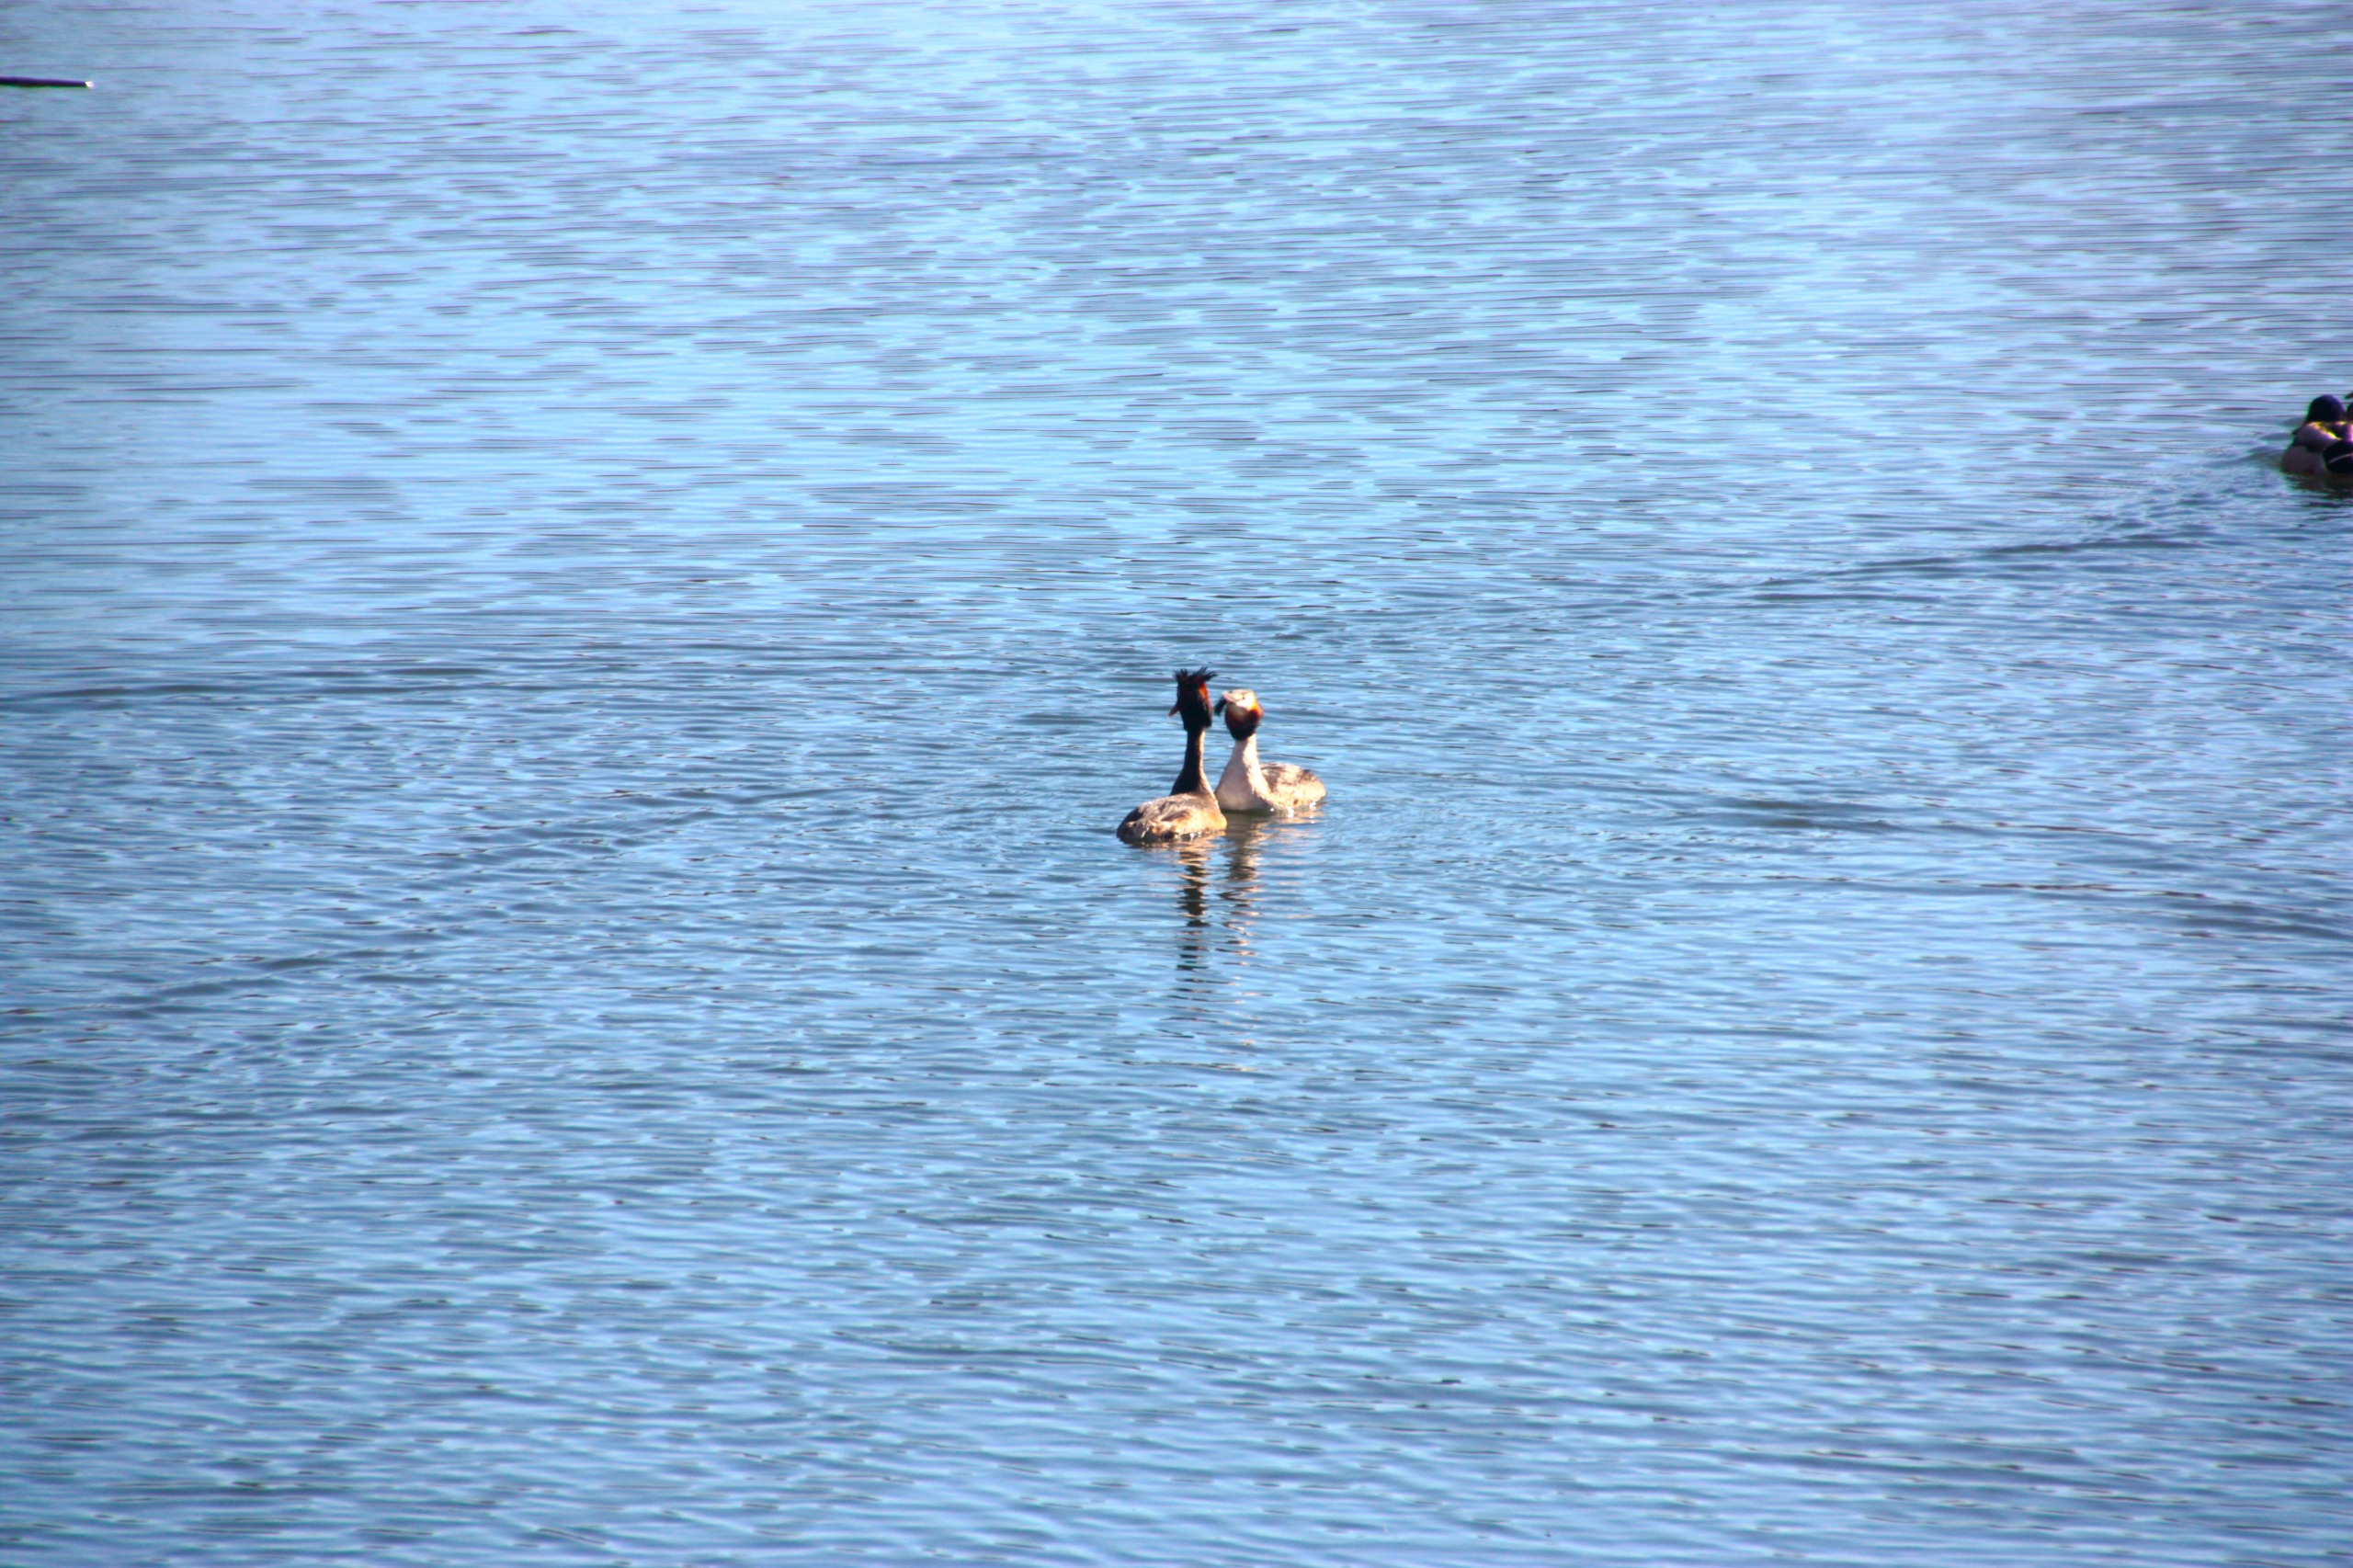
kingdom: Animalia
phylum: Chordata
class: Aves
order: Podicipediformes
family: Podicipedidae
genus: Podiceps
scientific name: Podiceps cristatus
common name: Toppet lappedykker
